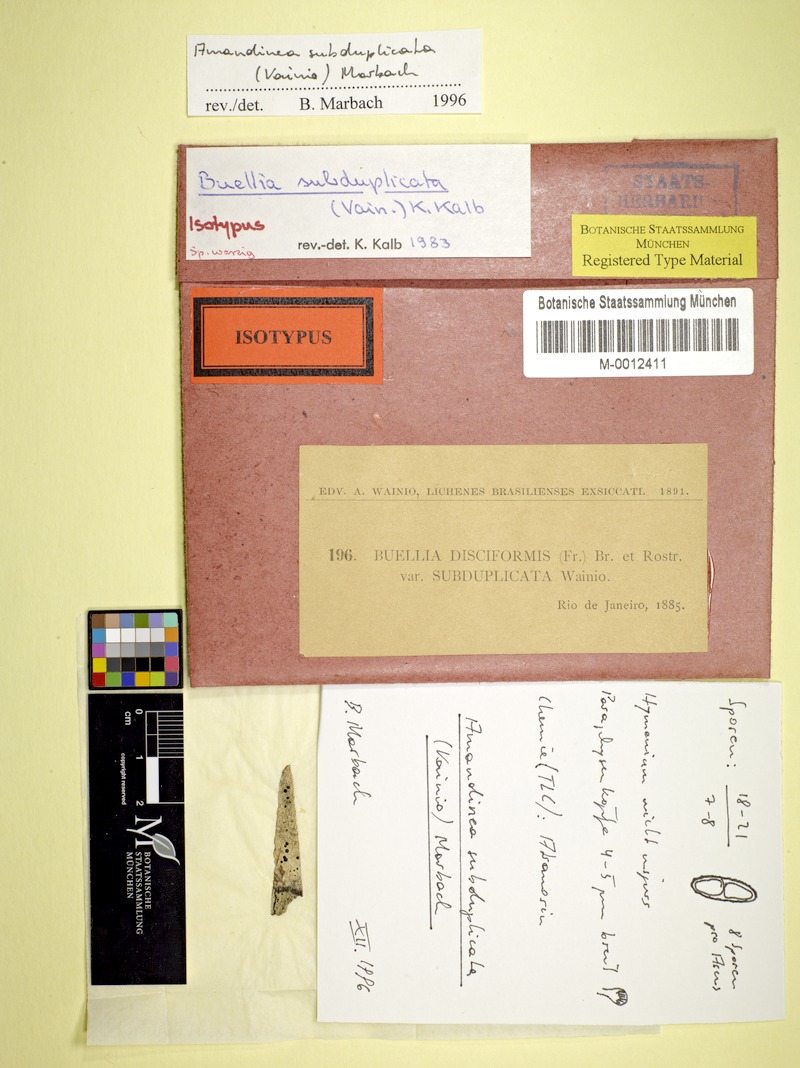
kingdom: Fungi
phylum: Ascomycota
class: Lecanoromycetes
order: Caliciales
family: Caliciaceae
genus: Amandinea
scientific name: Amandinea subduplicata
